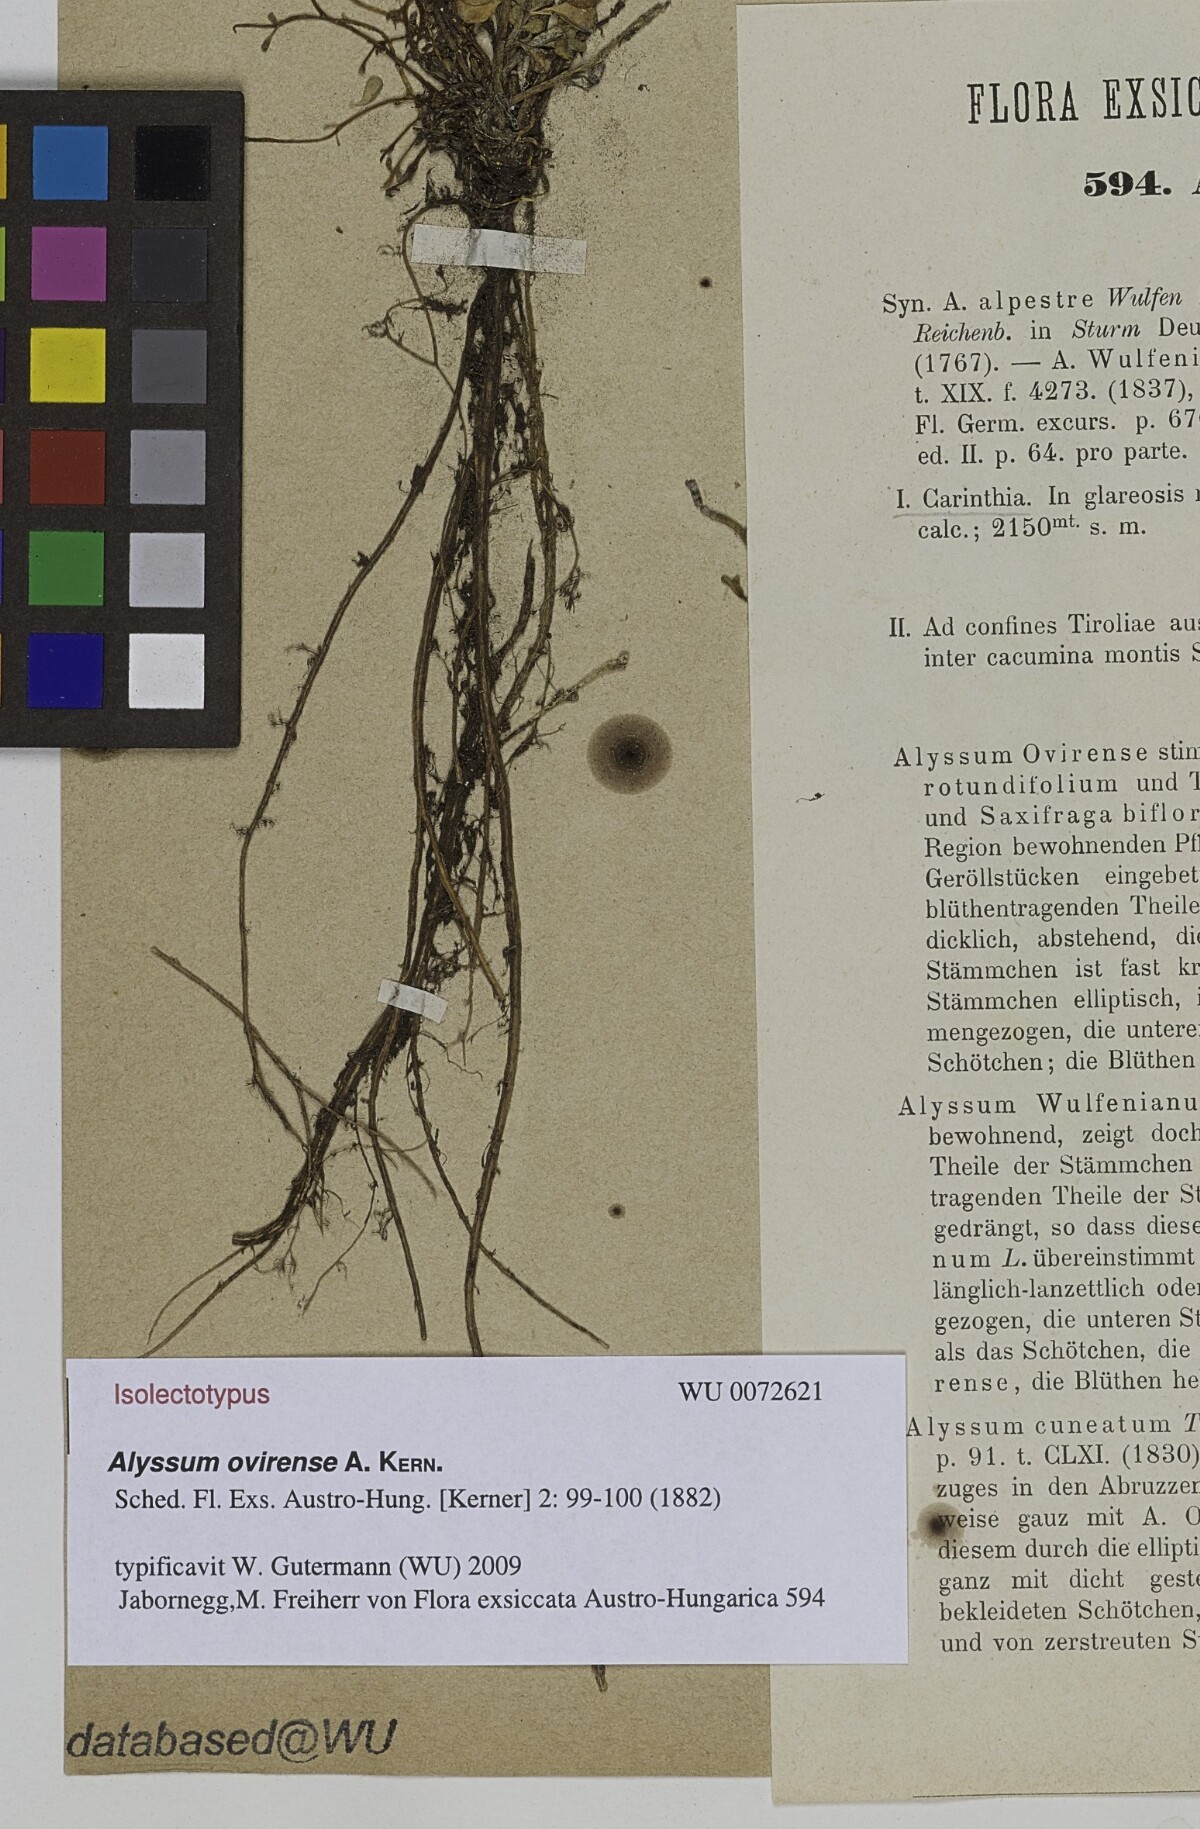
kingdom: Plantae
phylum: Tracheophyta
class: Magnoliopsida
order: Brassicales
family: Brassicaceae
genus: Alyssum
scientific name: Alyssum wulfenianum
